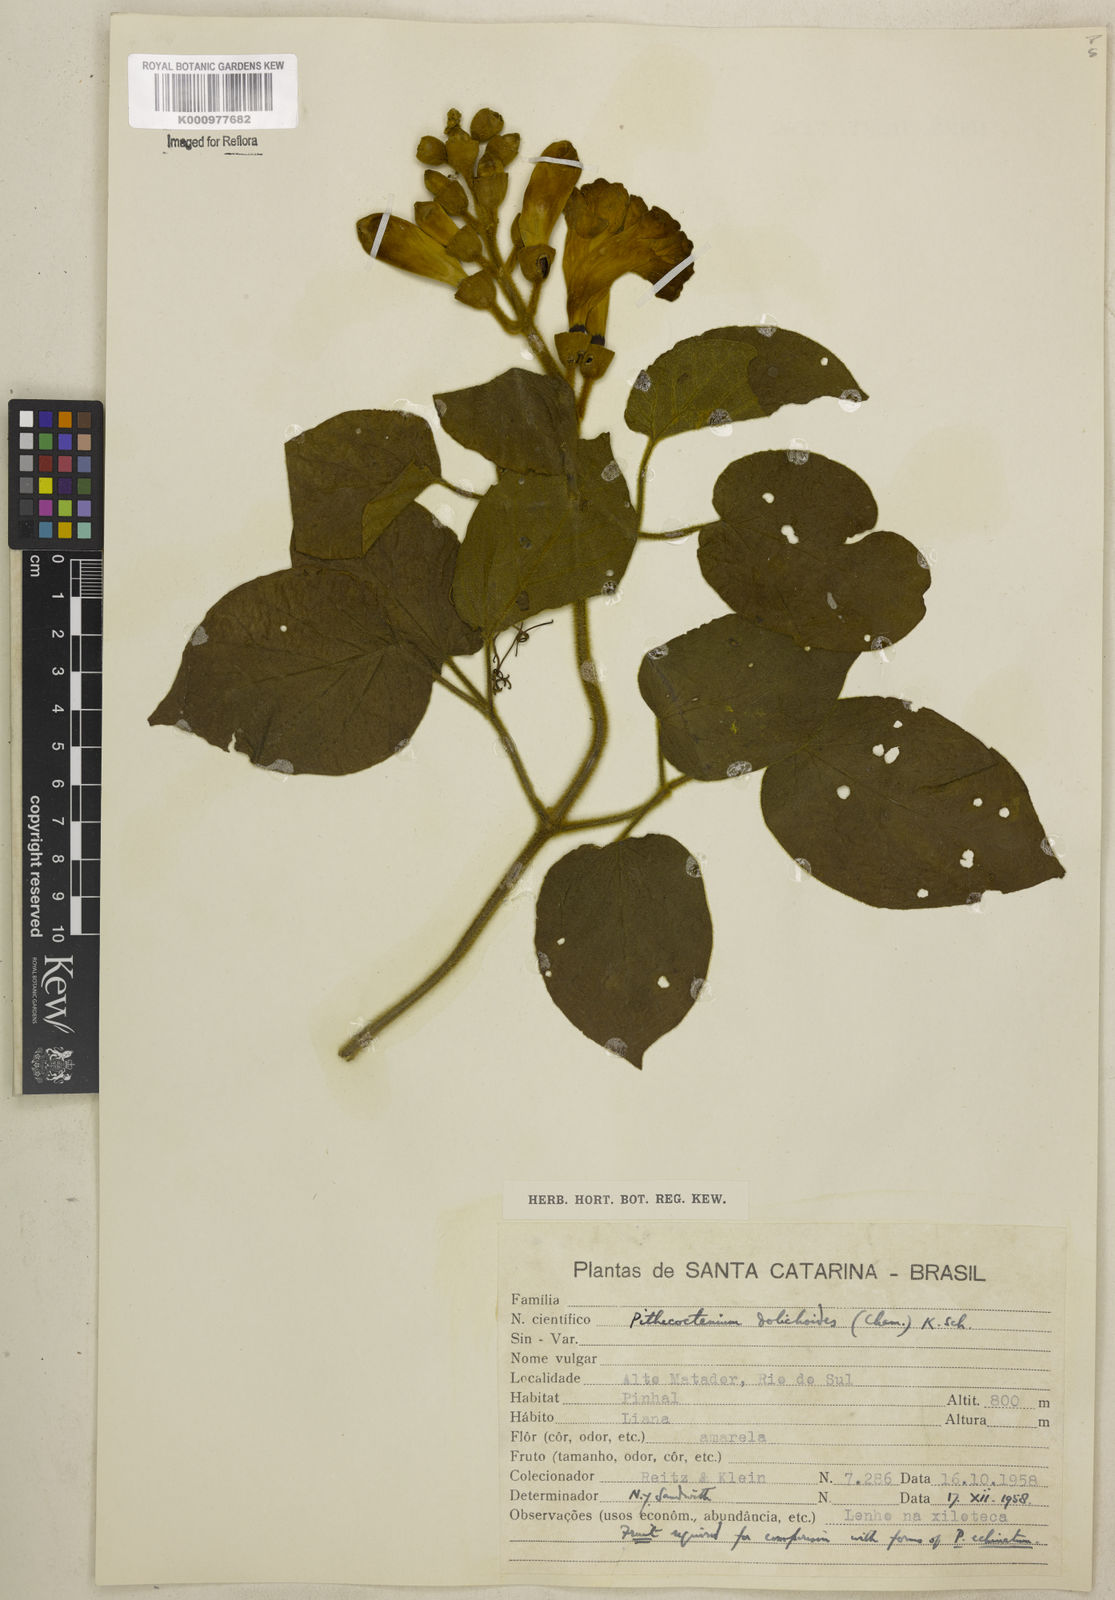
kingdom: Plantae
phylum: Tracheophyta
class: Magnoliopsida
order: Lamiales
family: Bignoniaceae
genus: Amphilophium
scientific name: Amphilophium dolichoides
